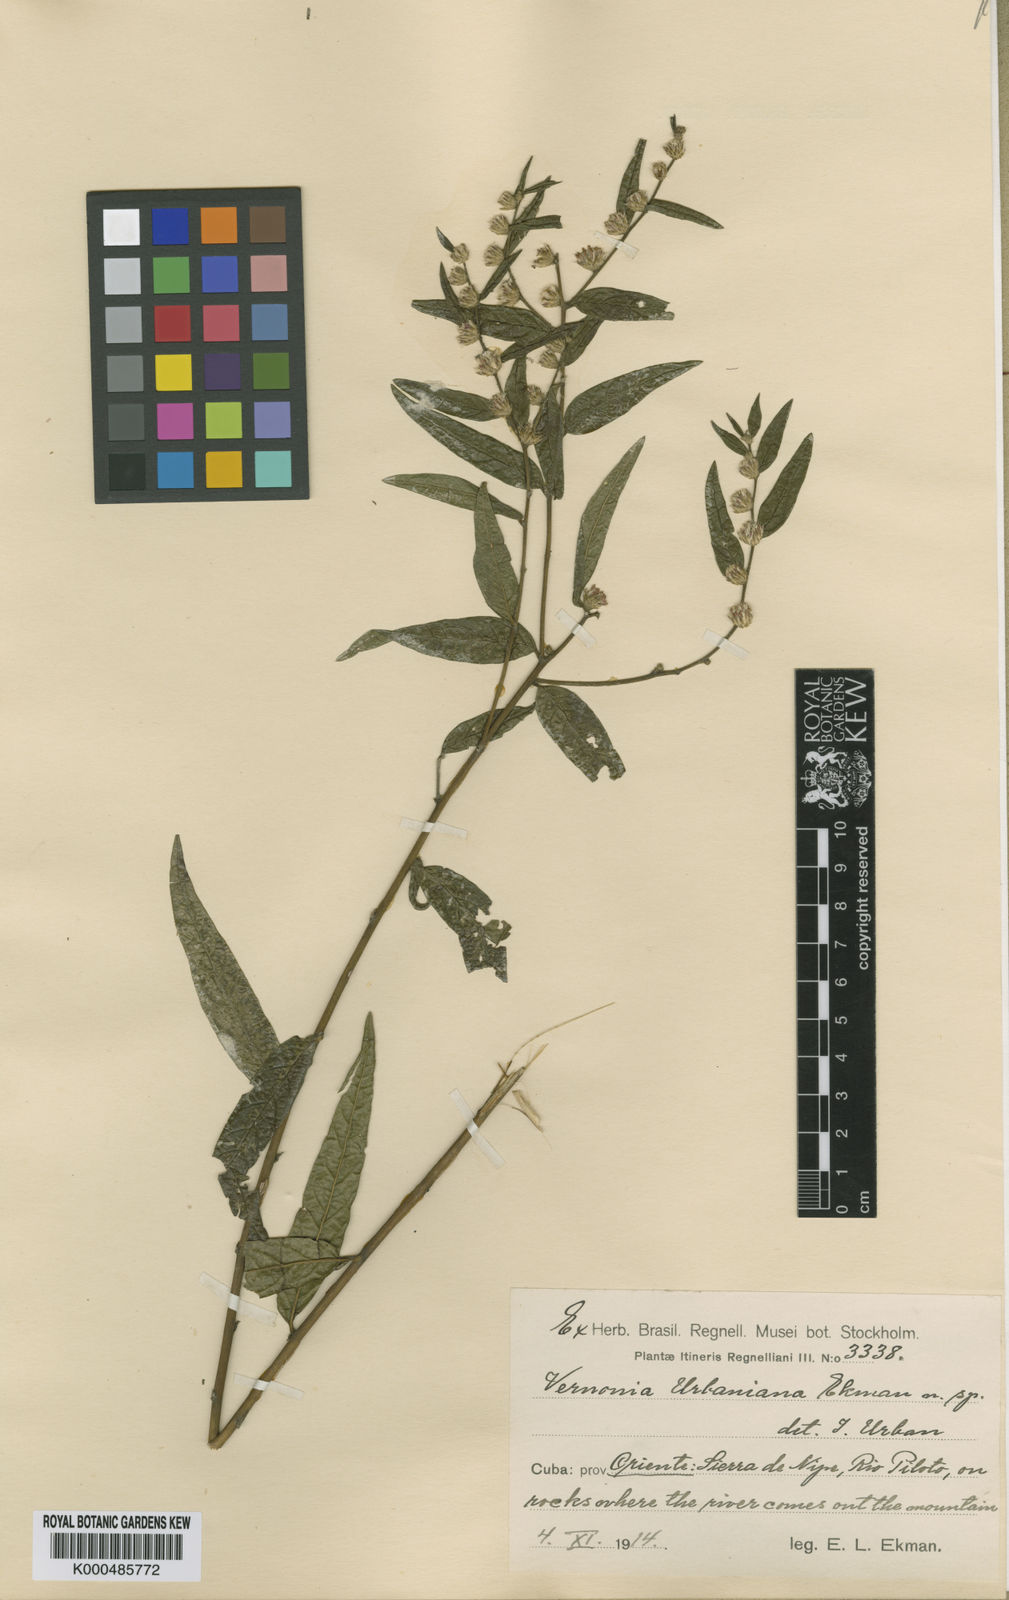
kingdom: Plantae
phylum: Tracheophyta
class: Magnoliopsida
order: Asterales
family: Asteraceae
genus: Lepidaploa
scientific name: Lepidaploa urbaniana
